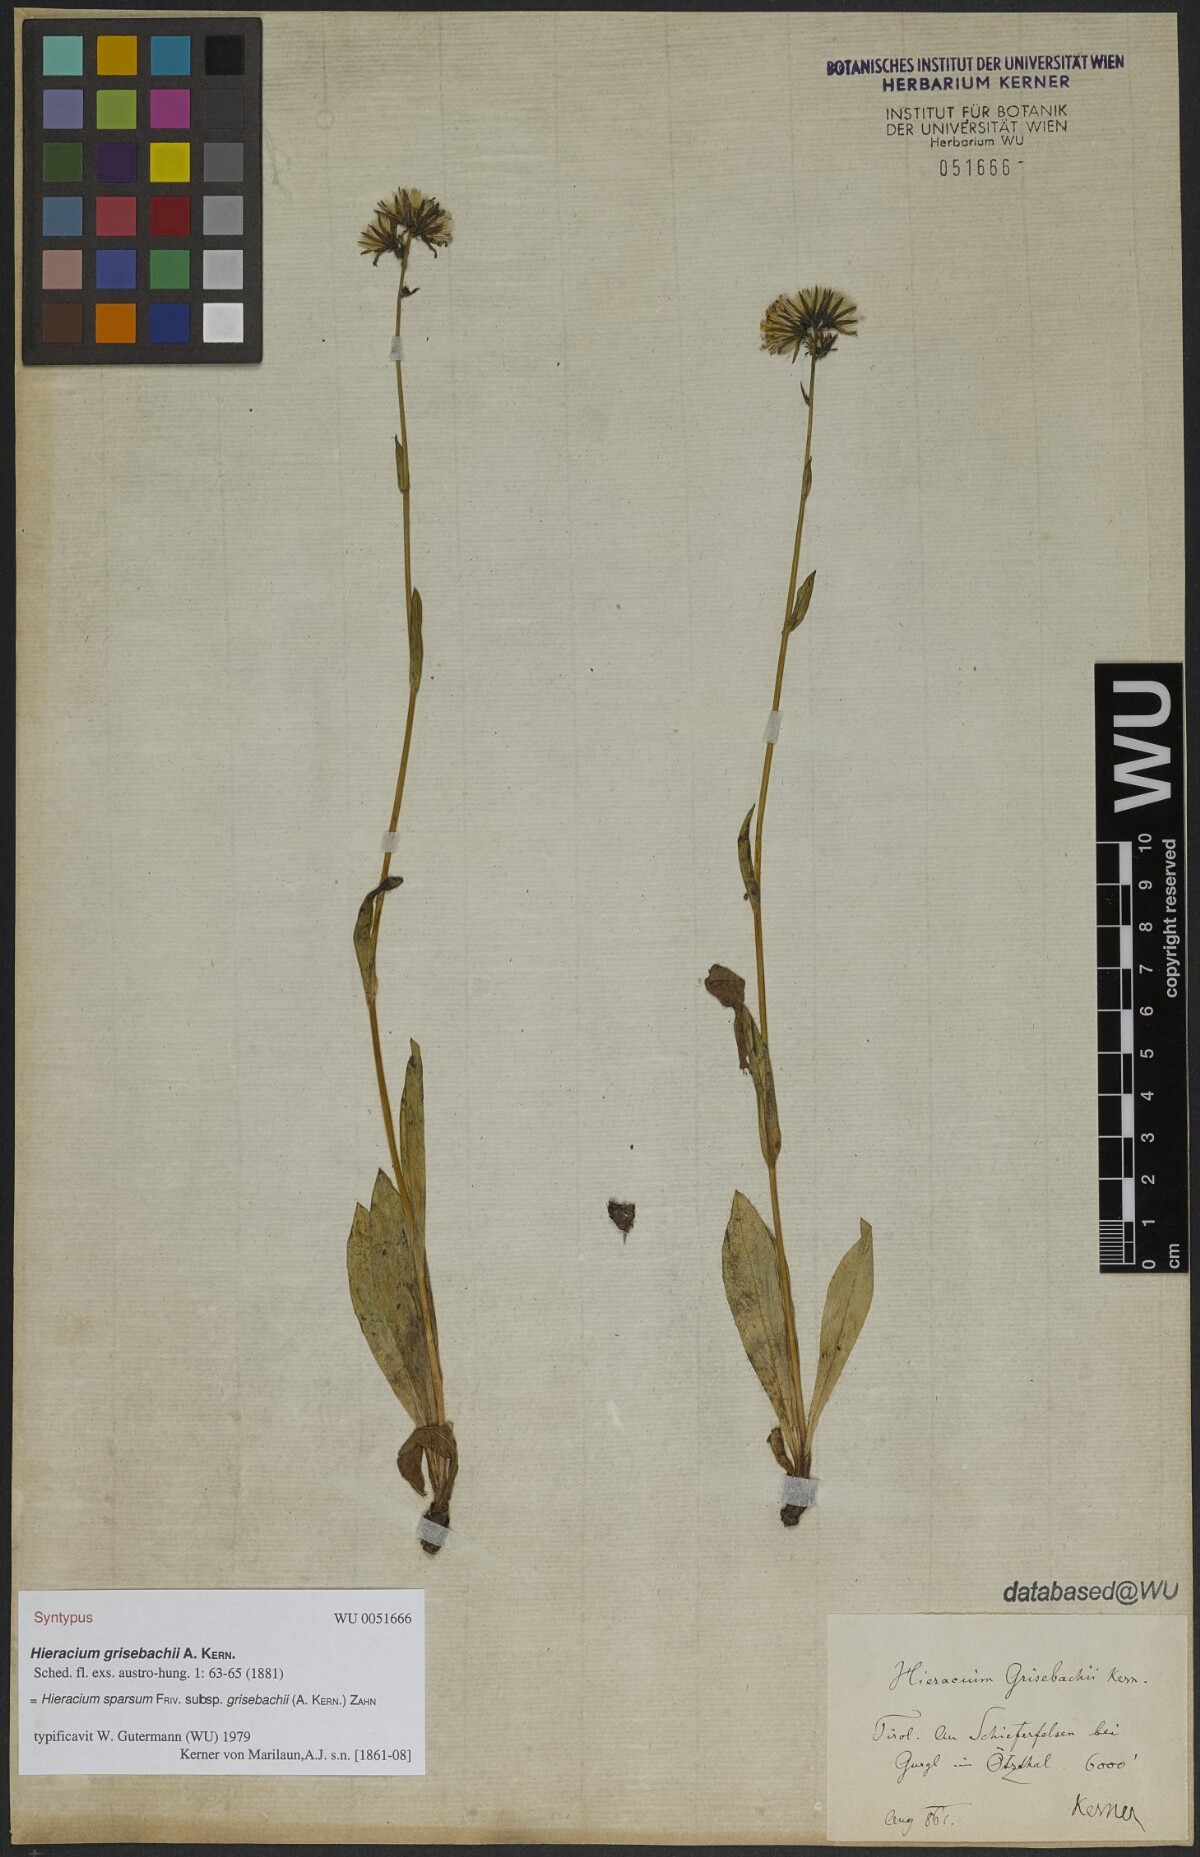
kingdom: Plantae
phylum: Tracheophyta
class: Magnoliopsida
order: Asterales
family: Asteraceae
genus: Hieracium
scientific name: Hieracium sparsum
